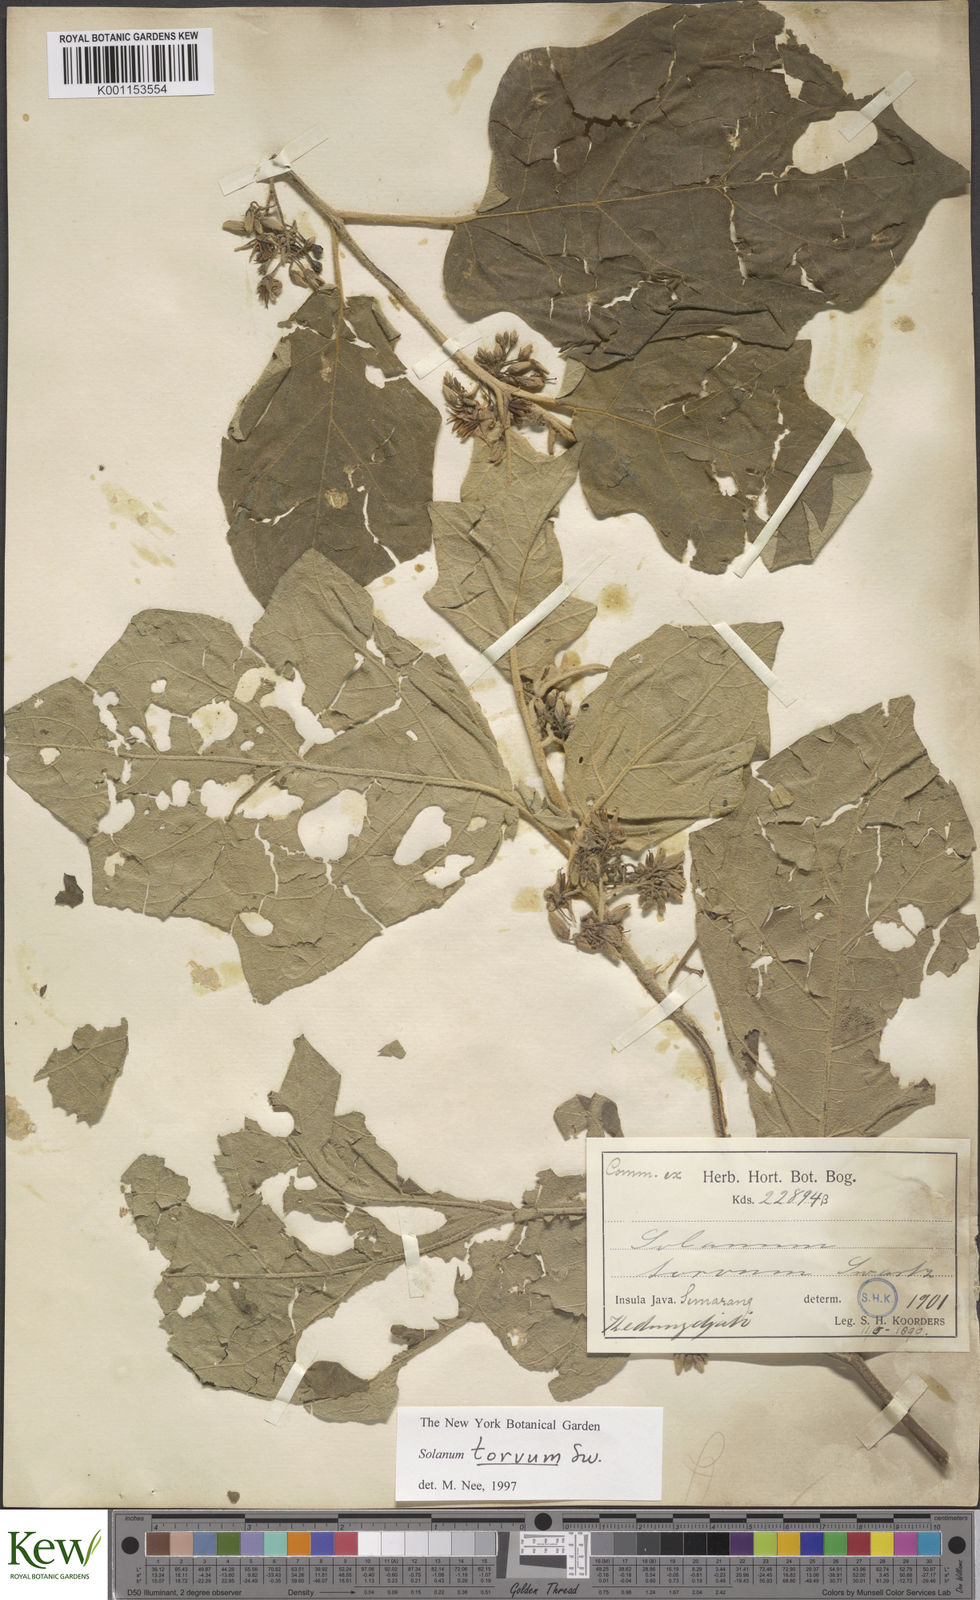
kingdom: Plantae
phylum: Tracheophyta
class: Magnoliopsida
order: Solanales
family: Solanaceae
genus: Solanum
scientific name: Solanum torvum
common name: Turkey berry
